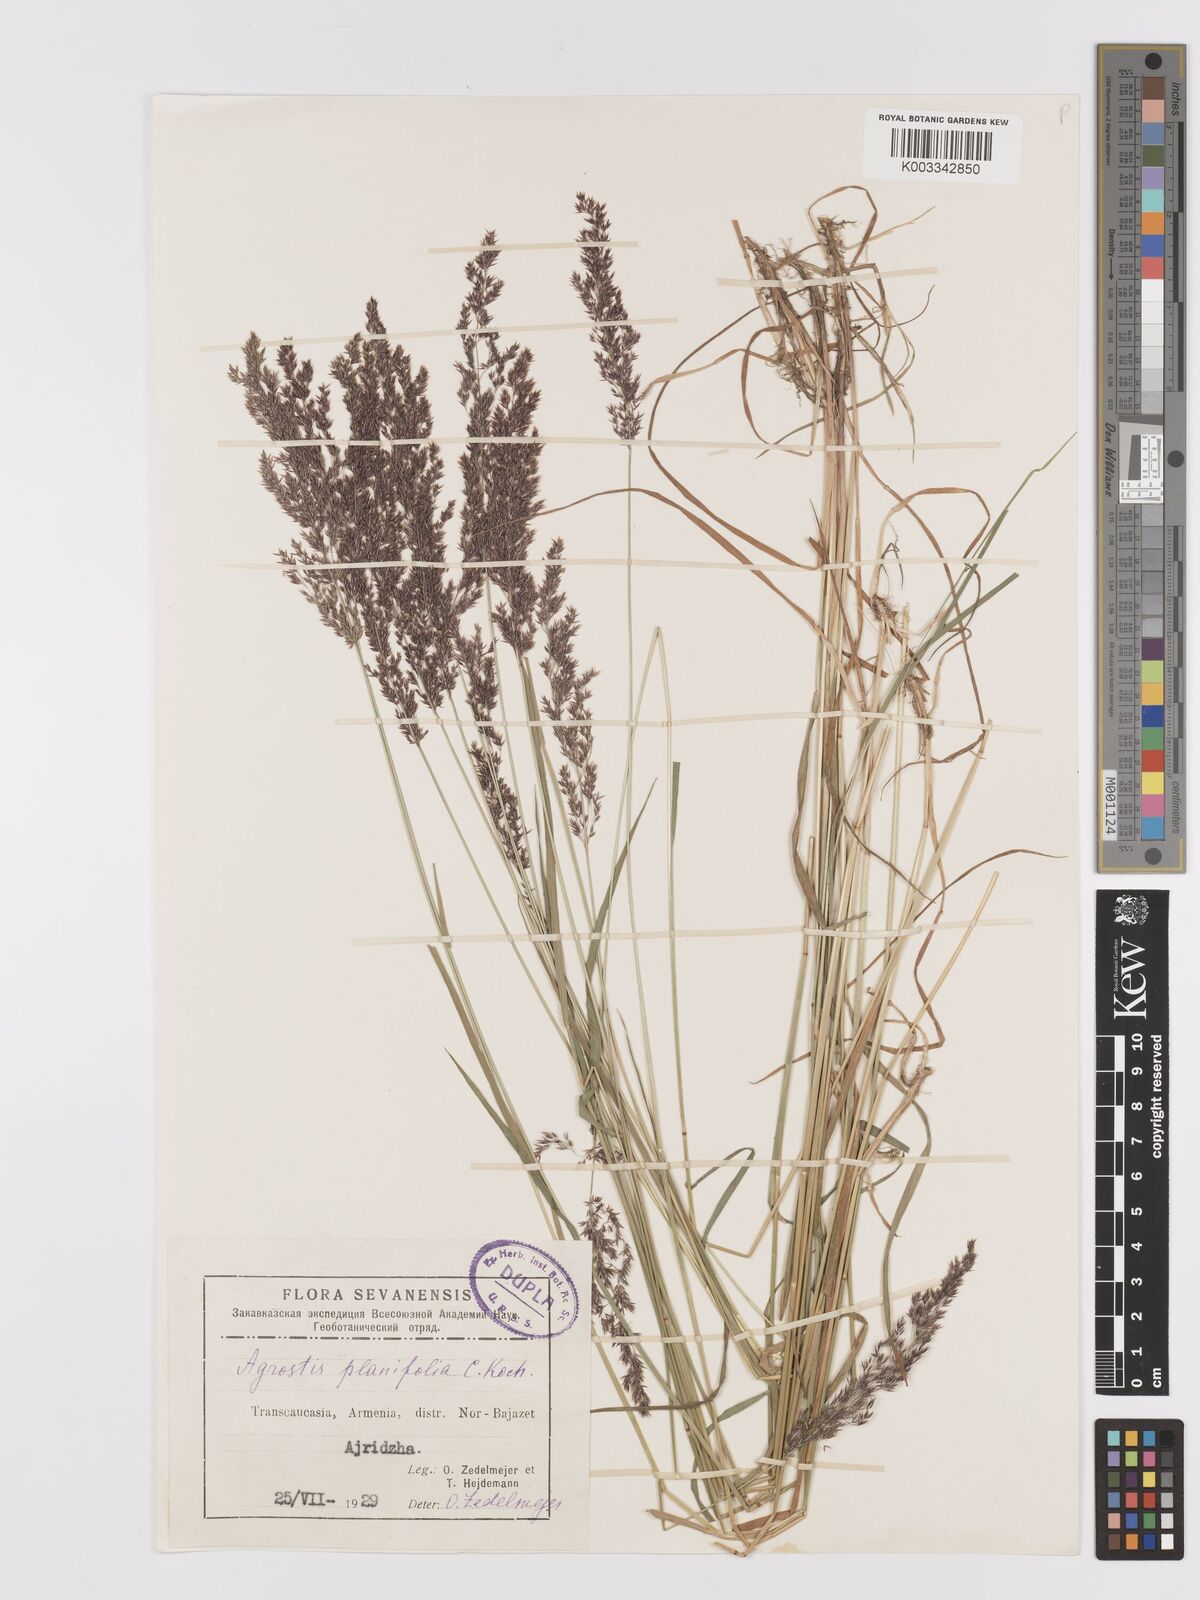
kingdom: Plantae
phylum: Tracheophyta
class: Liliopsida
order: Poales
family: Poaceae
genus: Agrostis
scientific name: Agrostis vinealis
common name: Brown bent
